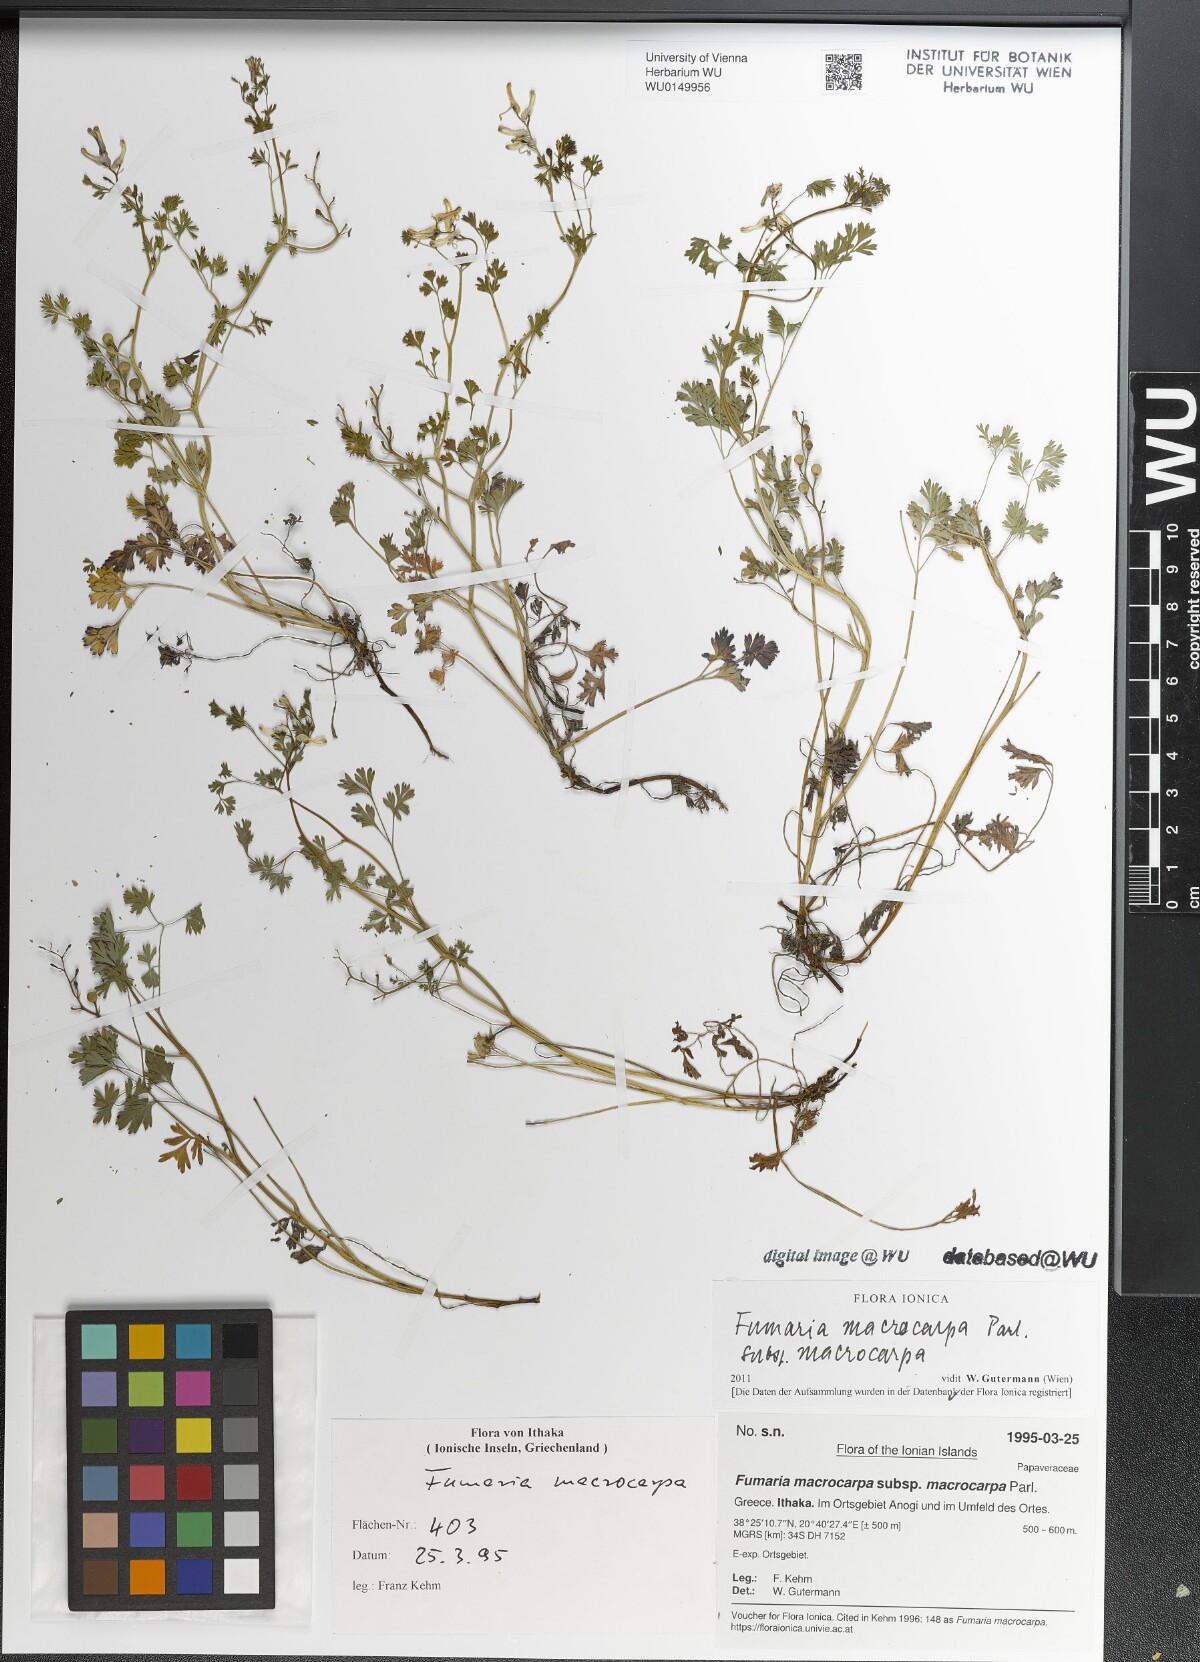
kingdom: Plantae
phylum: Tracheophyta
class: Magnoliopsida
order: Ranunculales
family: Papaveraceae
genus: Fumaria
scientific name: Fumaria macrocarpa
